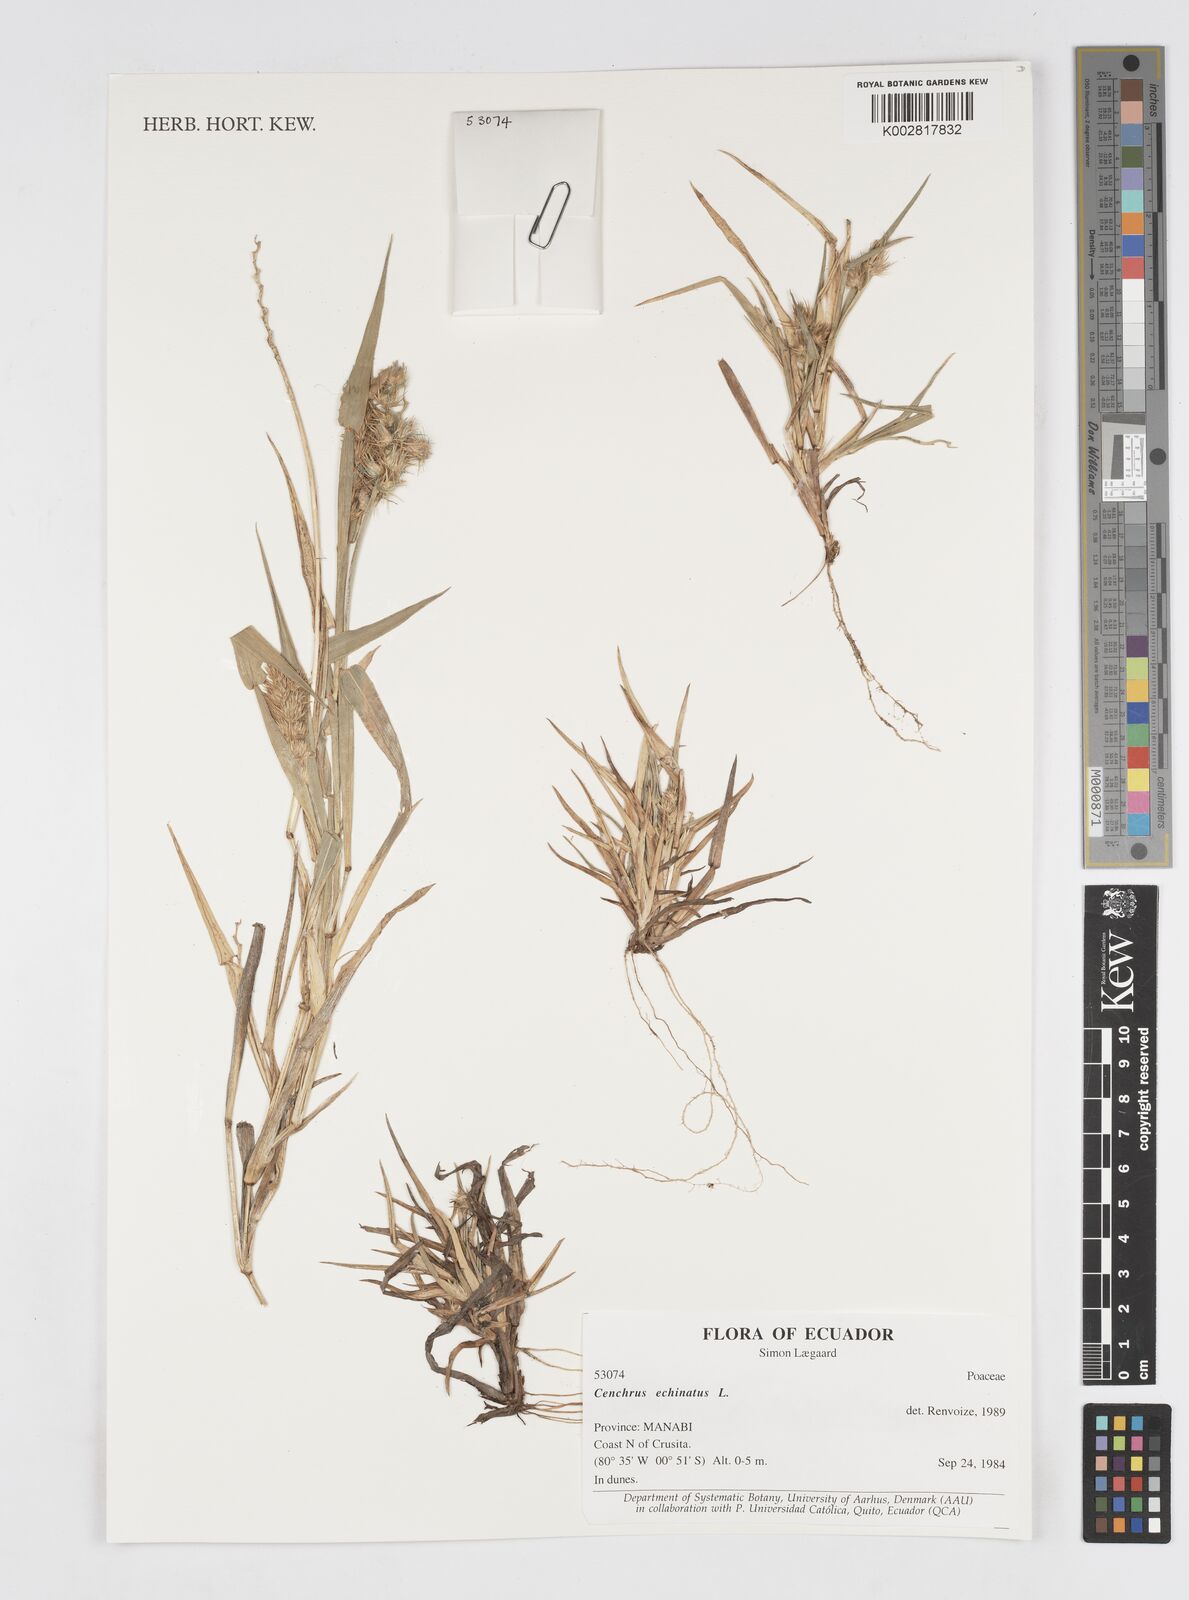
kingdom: Plantae
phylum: Tracheophyta
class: Liliopsida
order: Poales
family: Poaceae
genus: Cenchrus
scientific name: Cenchrus
